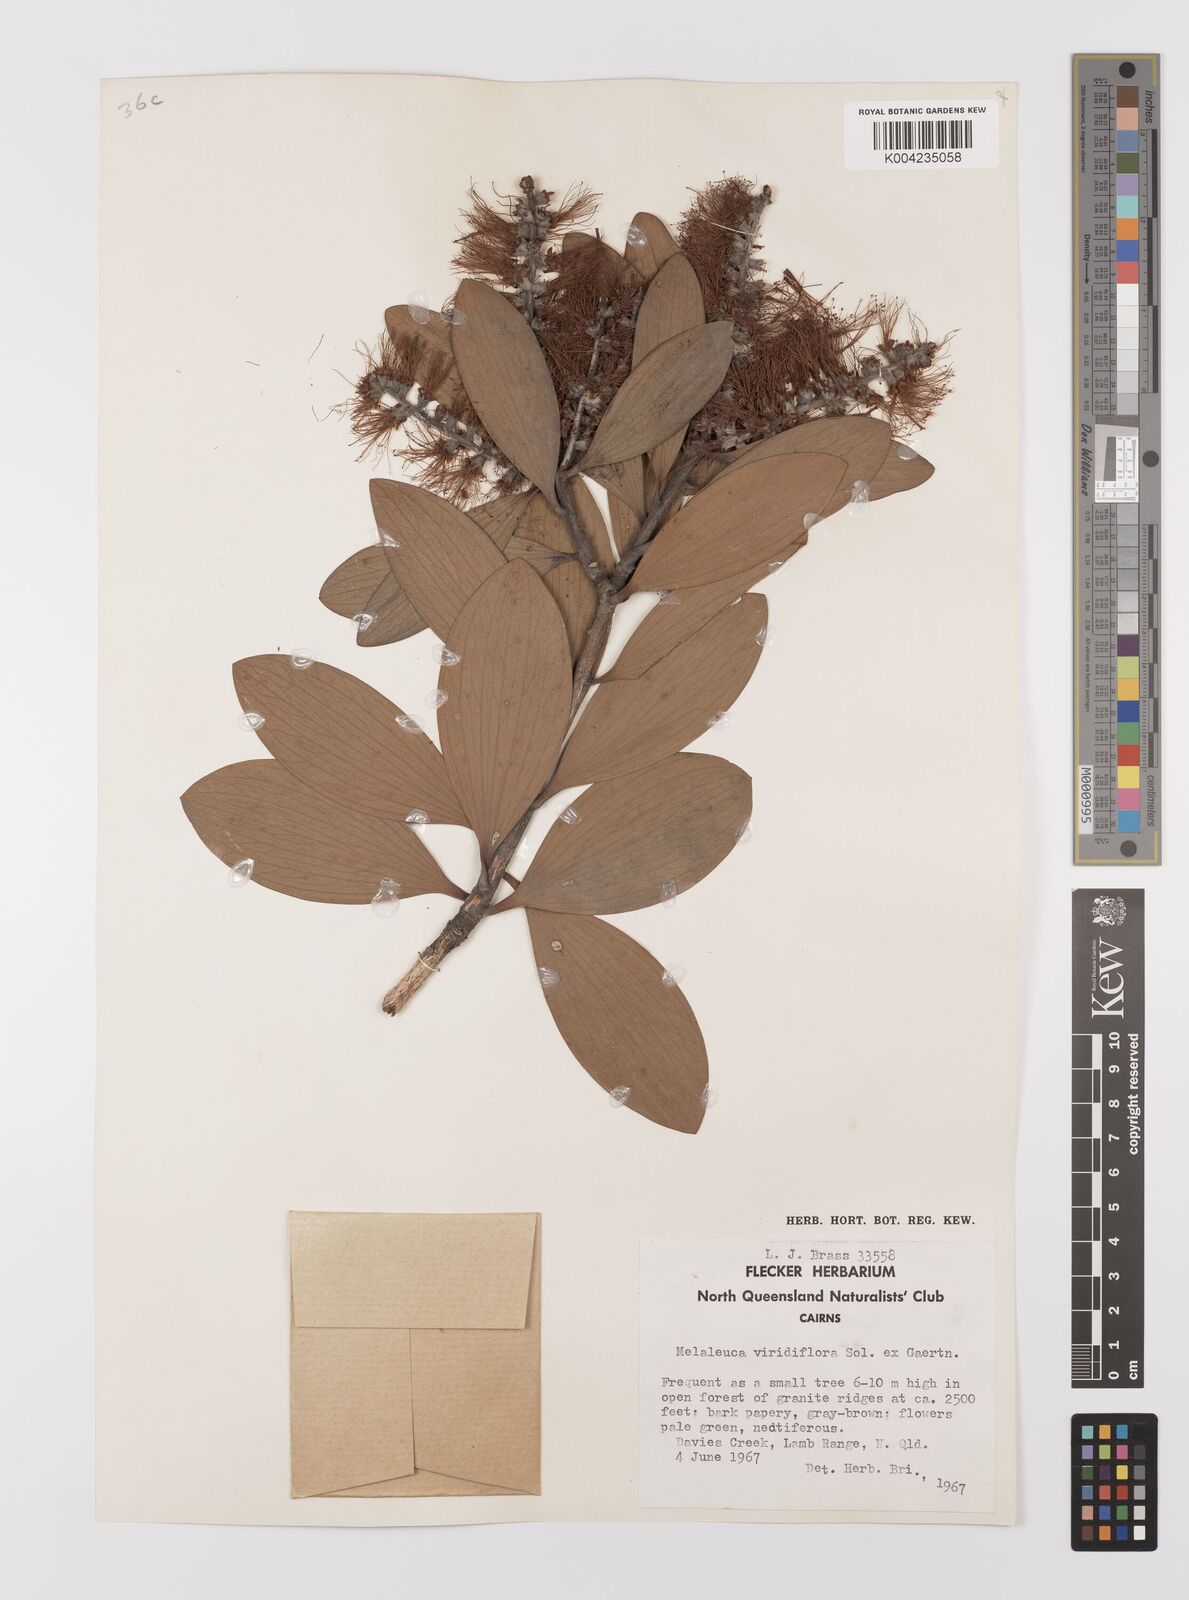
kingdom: Plantae
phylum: Tracheophyta
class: Magnoliopsida
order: Myrtales
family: Myrtaceae
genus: Melaleuca
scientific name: Melaleuca viridiflora
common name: Brown-leaved paperbark
